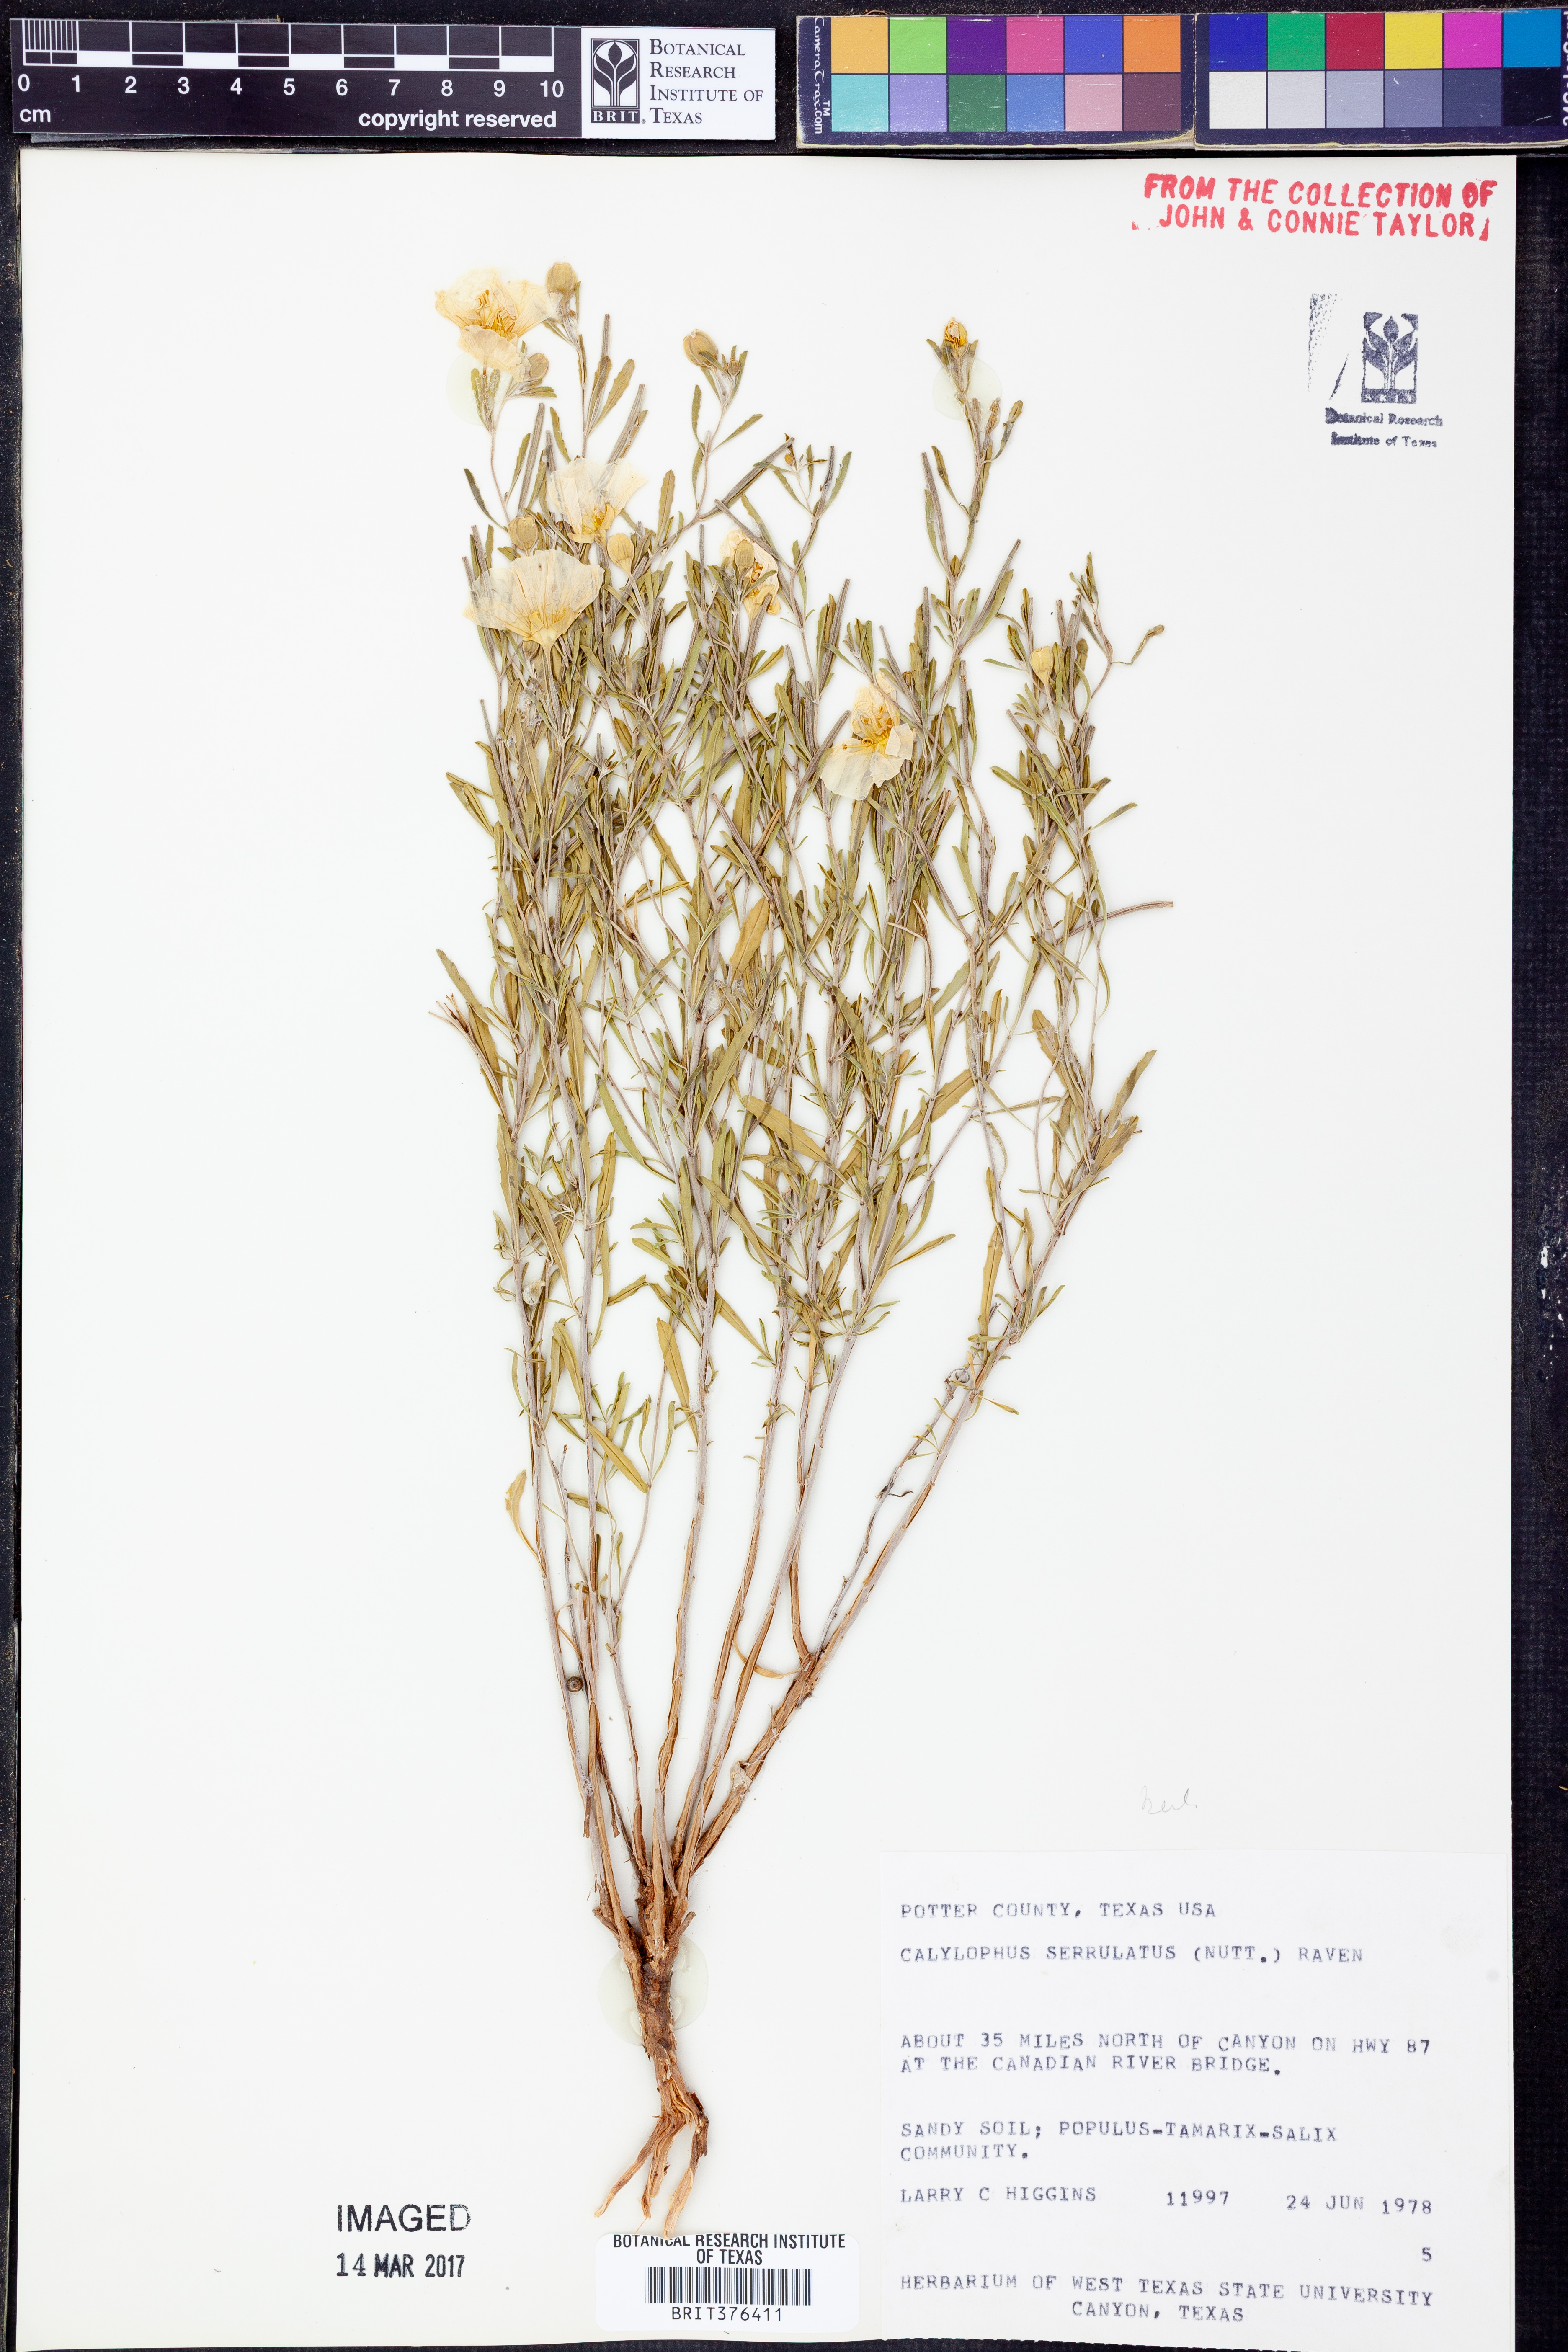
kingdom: Plantae
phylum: Tracheophyta
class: Magnoliopsida
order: Myrtales
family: Onagraceae
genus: Oenothera
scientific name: Oenothera serrulata
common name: Half-shrub calylophus
